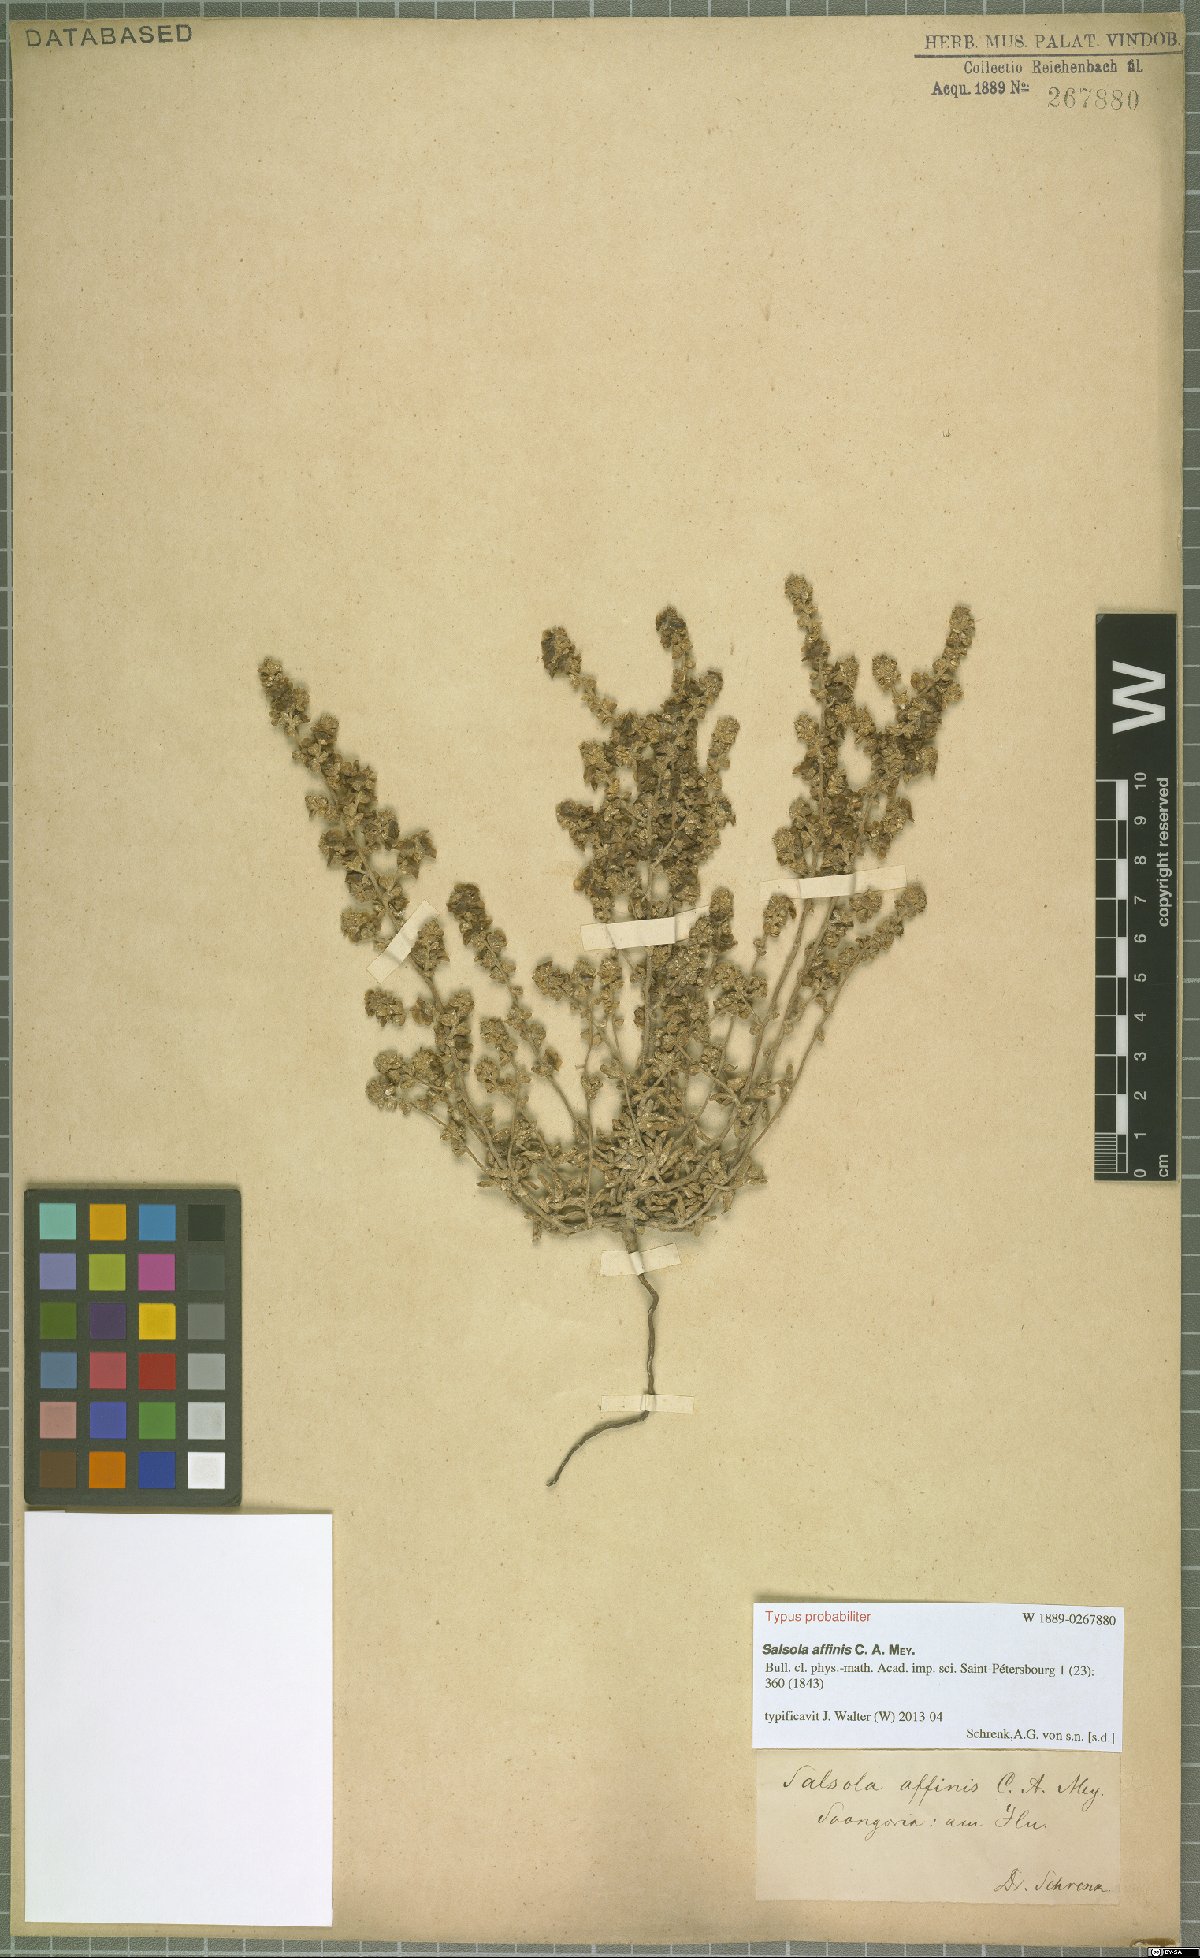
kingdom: Plantae
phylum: Tracheophyta
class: Magnoliopsida
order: Caryophyllales
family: Amaranthaceae
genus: Salsola
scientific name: Salsola affinis
